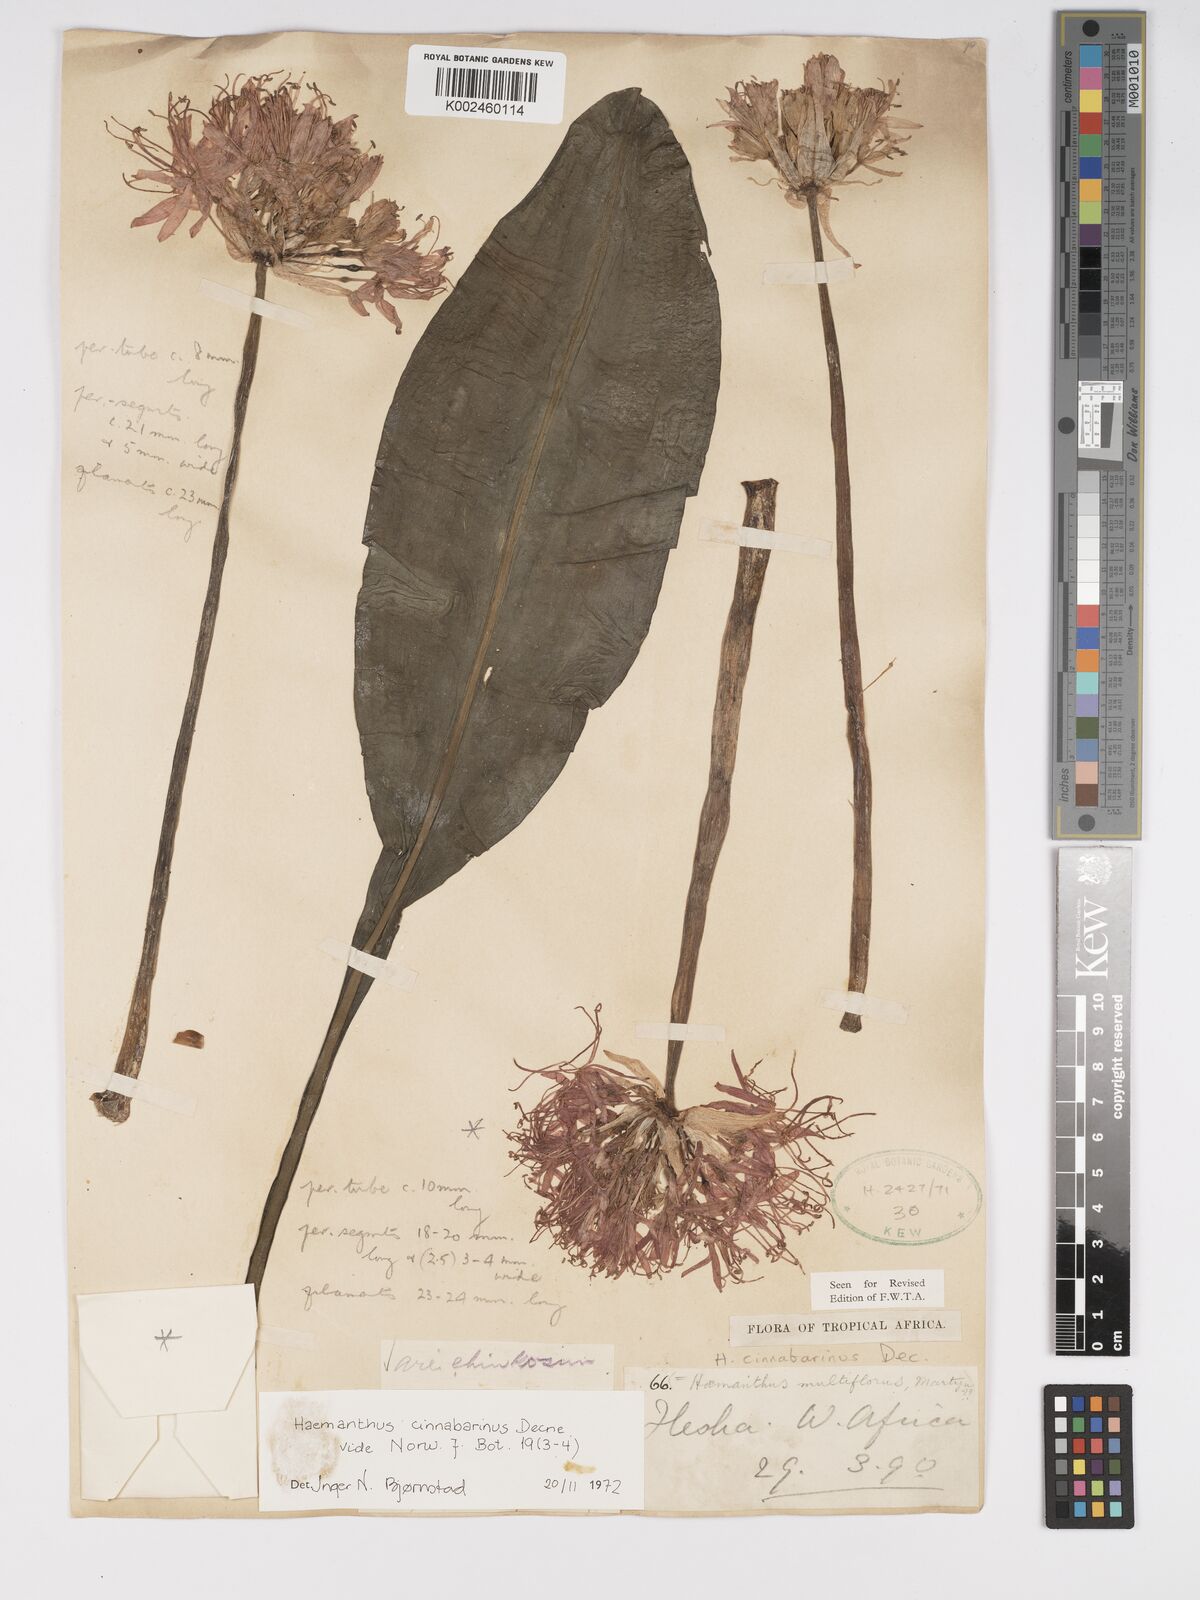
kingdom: Plantae
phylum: Tracheophyta
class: Liliopsida
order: Asparagales
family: Amaryllidaceae
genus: Scadoxus
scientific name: Scadoxus cinnabarinus
